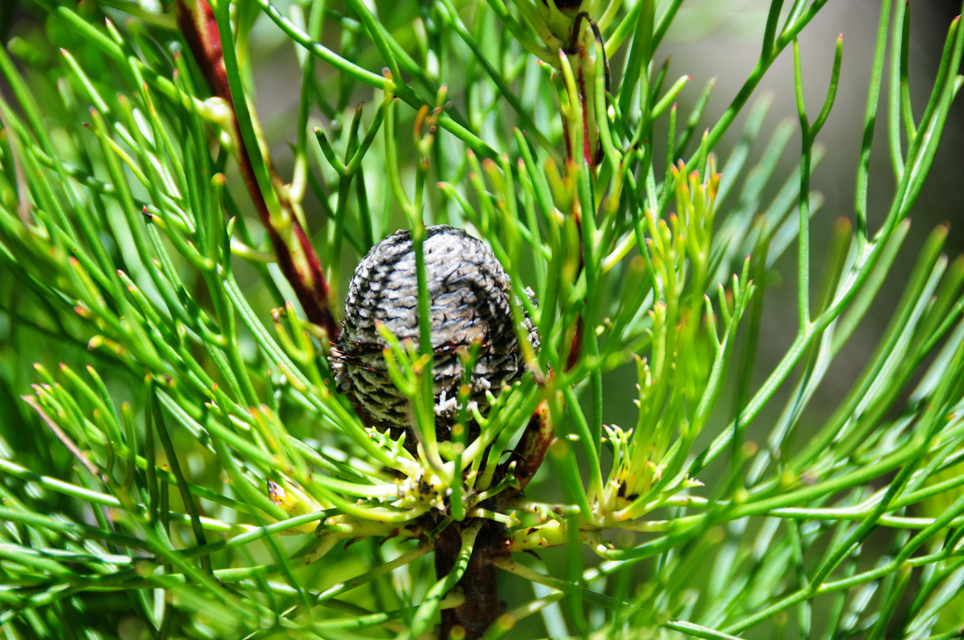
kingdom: Plantae
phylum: Tracheophyta
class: Magnoliopsida
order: Proteales
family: Proteaceae
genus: Isopogon
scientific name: Isopogon anethifolius
